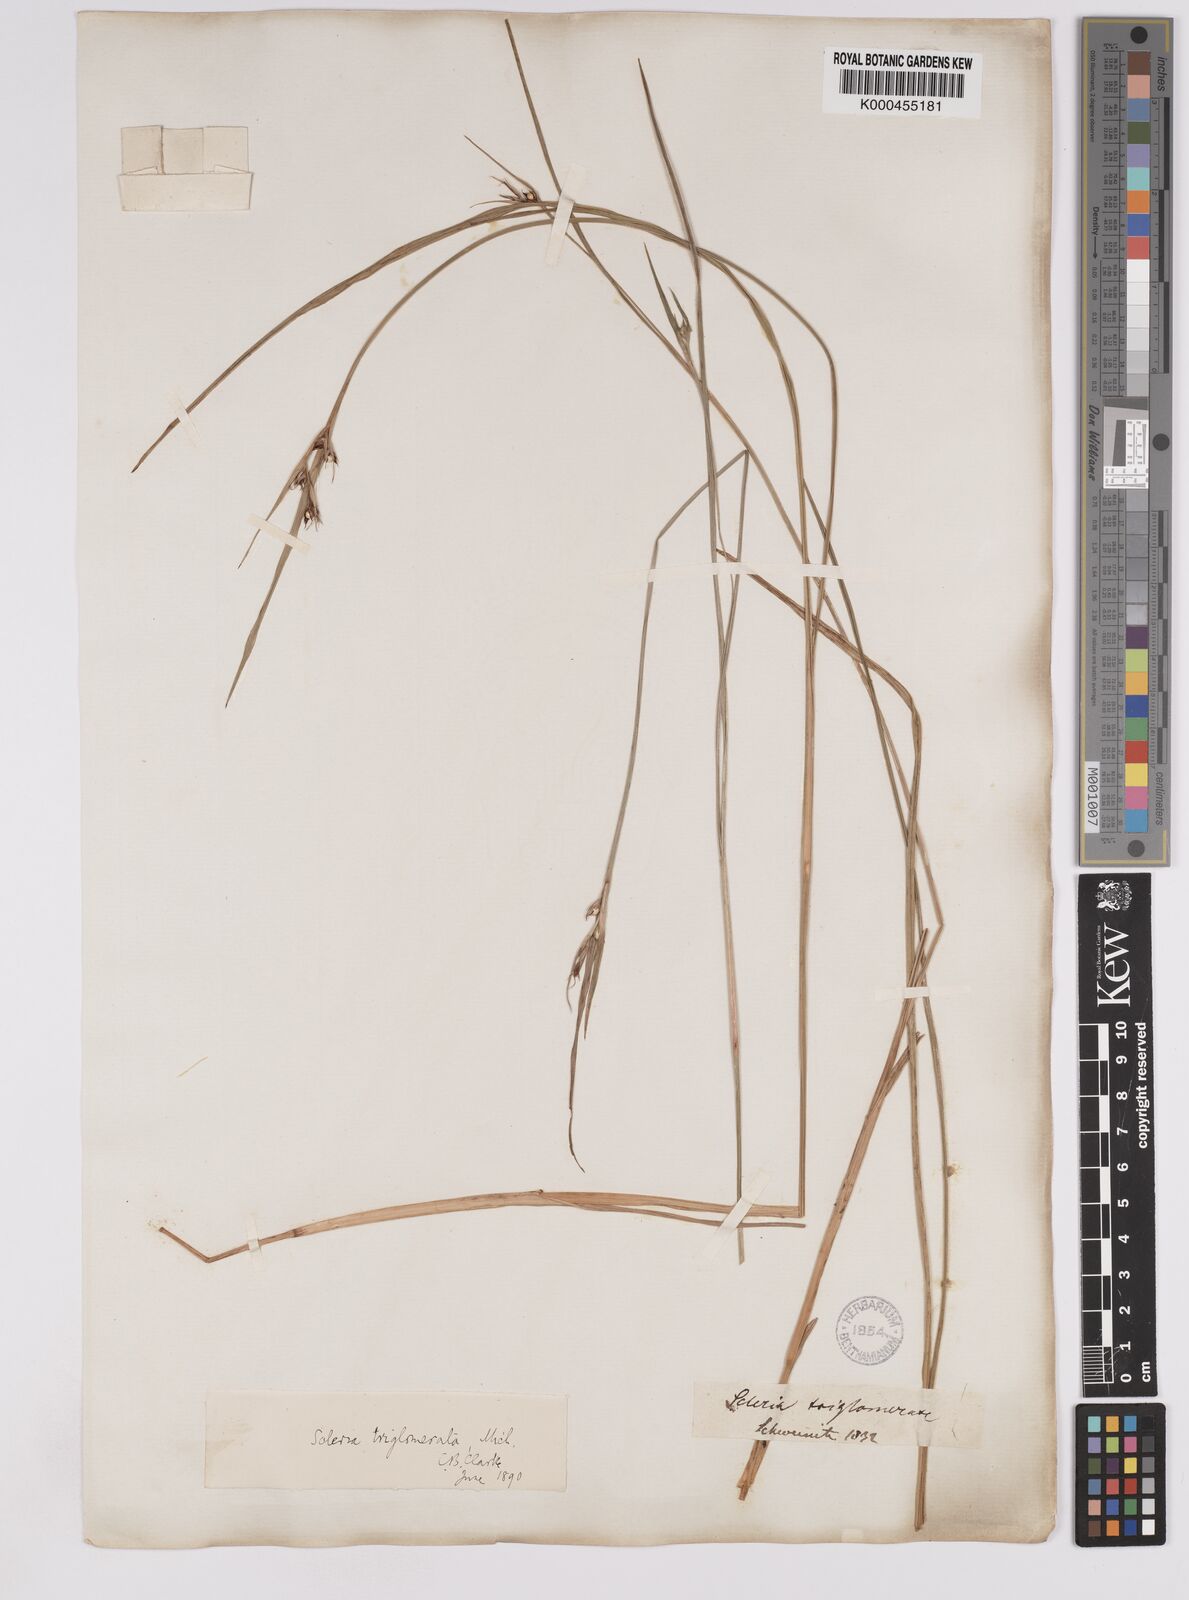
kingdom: Plantae
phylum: Tracheophyta
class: Liliopsida
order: Poales
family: Cyperaceae
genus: Scleria
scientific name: Scleria triglomerata
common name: Whip nutrush
